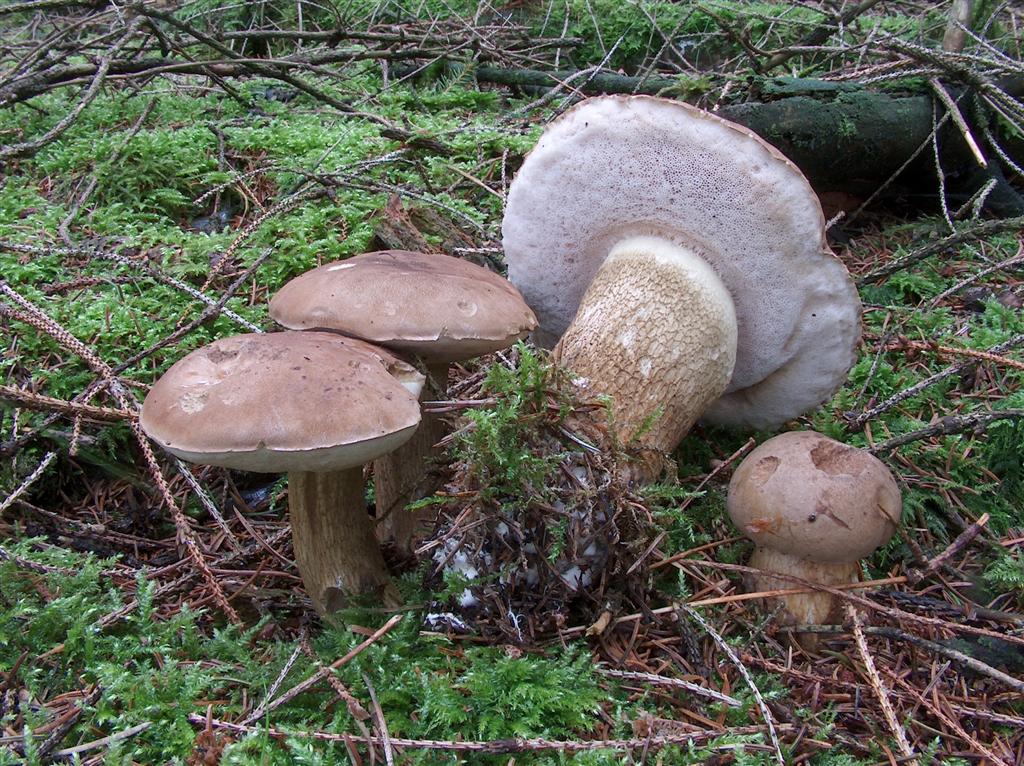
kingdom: Fungi
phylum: Basidiomycota
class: Agaricomycetes
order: Boletales
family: Boletaceae
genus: Tylopilus
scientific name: Tylopilus felleus
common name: galderørhat
